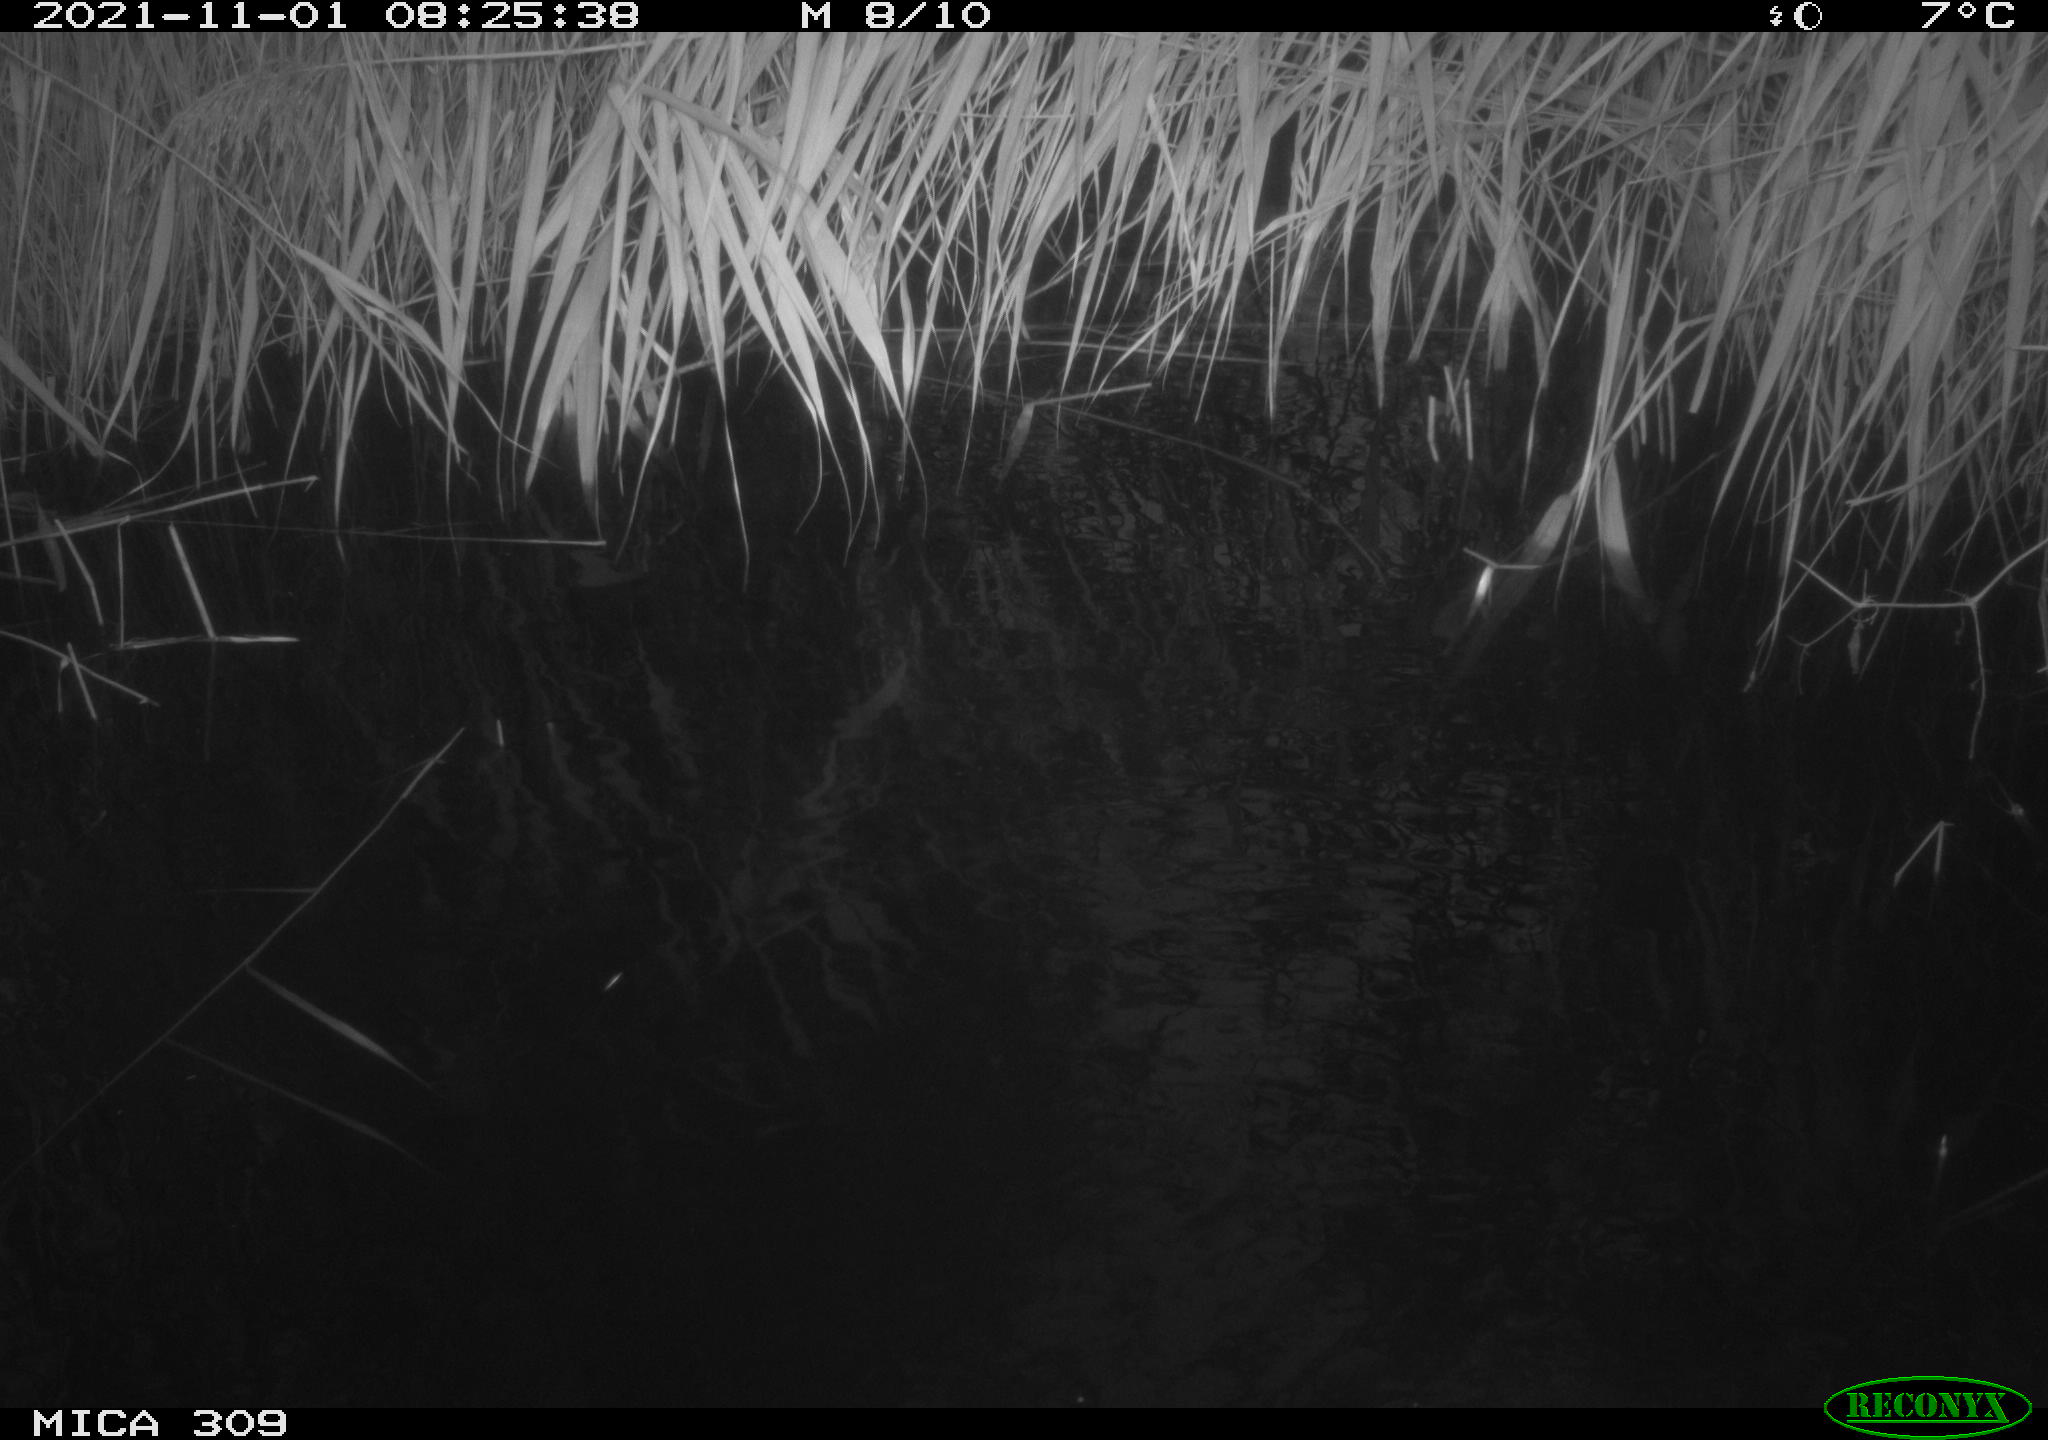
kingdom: Animalia
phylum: Chordata
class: Aves
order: Gruiformes
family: Rallidae
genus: Gallinula
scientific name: Gallinula chloropus
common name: Common moorhen
